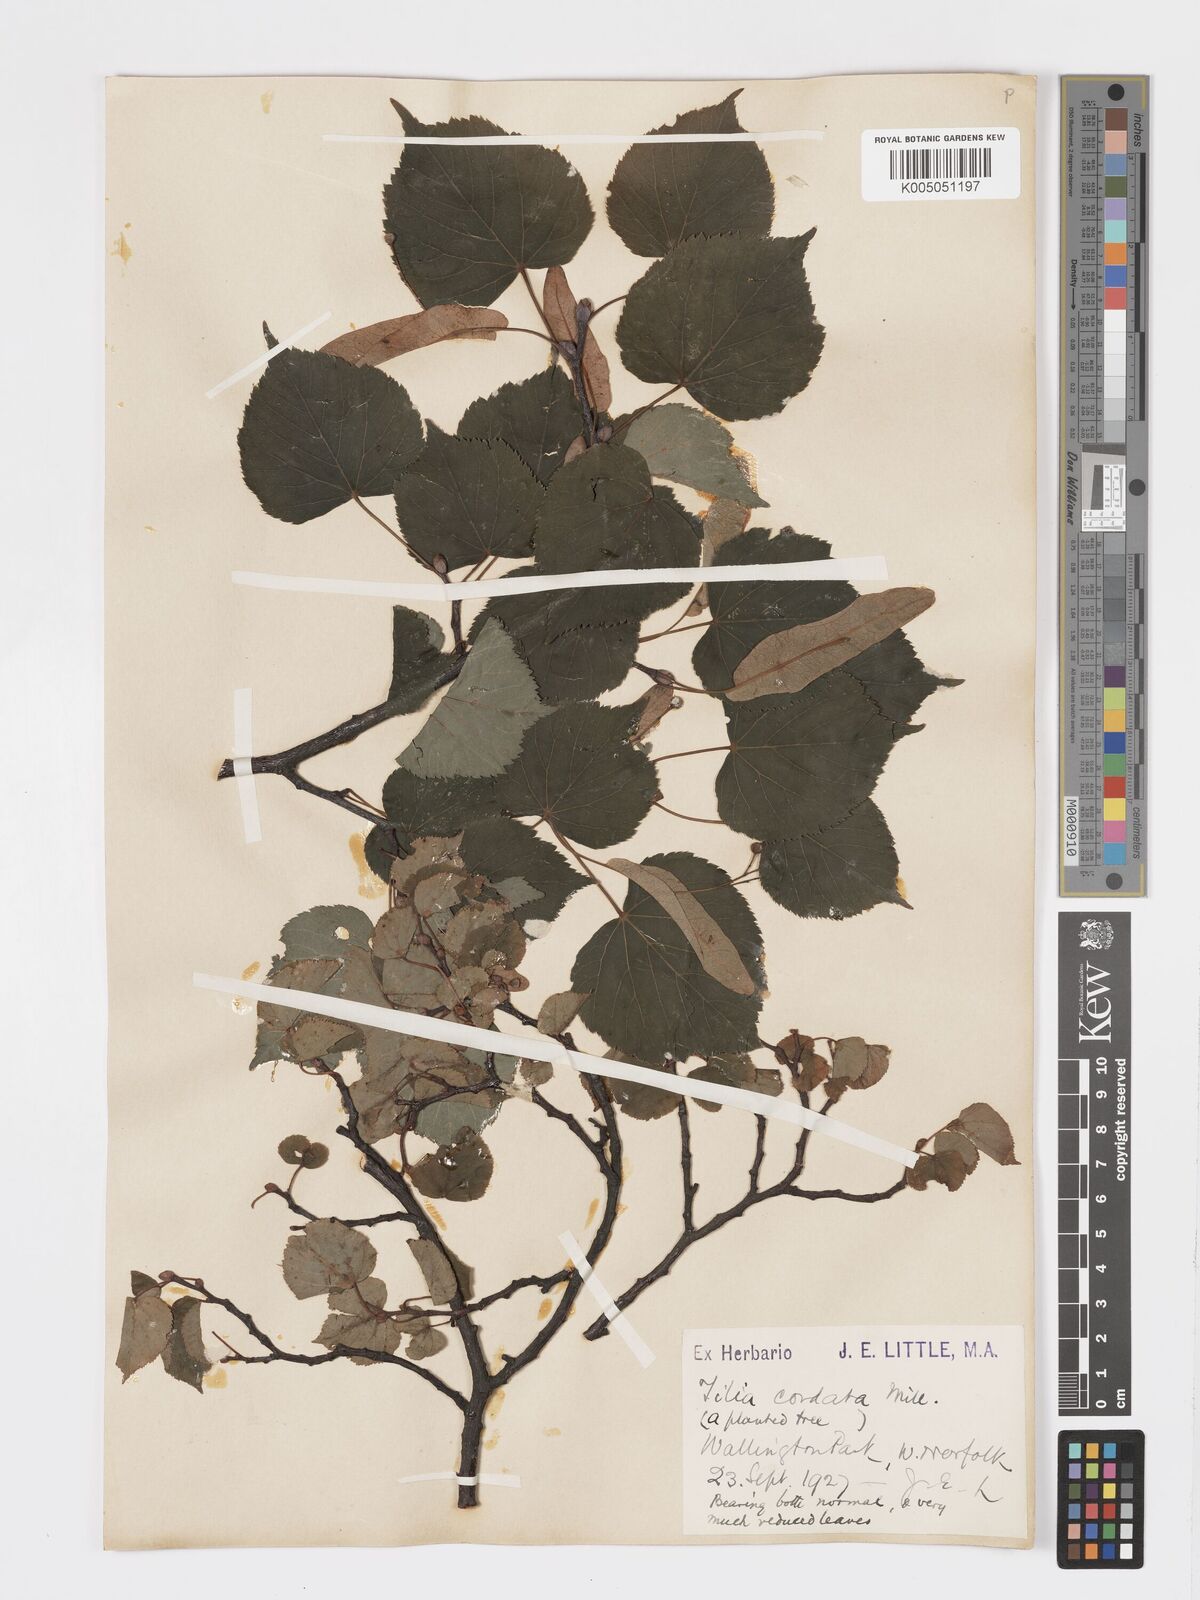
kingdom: Plantae
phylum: Tracheophyta
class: Magnoliopsida
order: Malvales
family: Malvaceae
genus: Tilia
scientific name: Tilia
